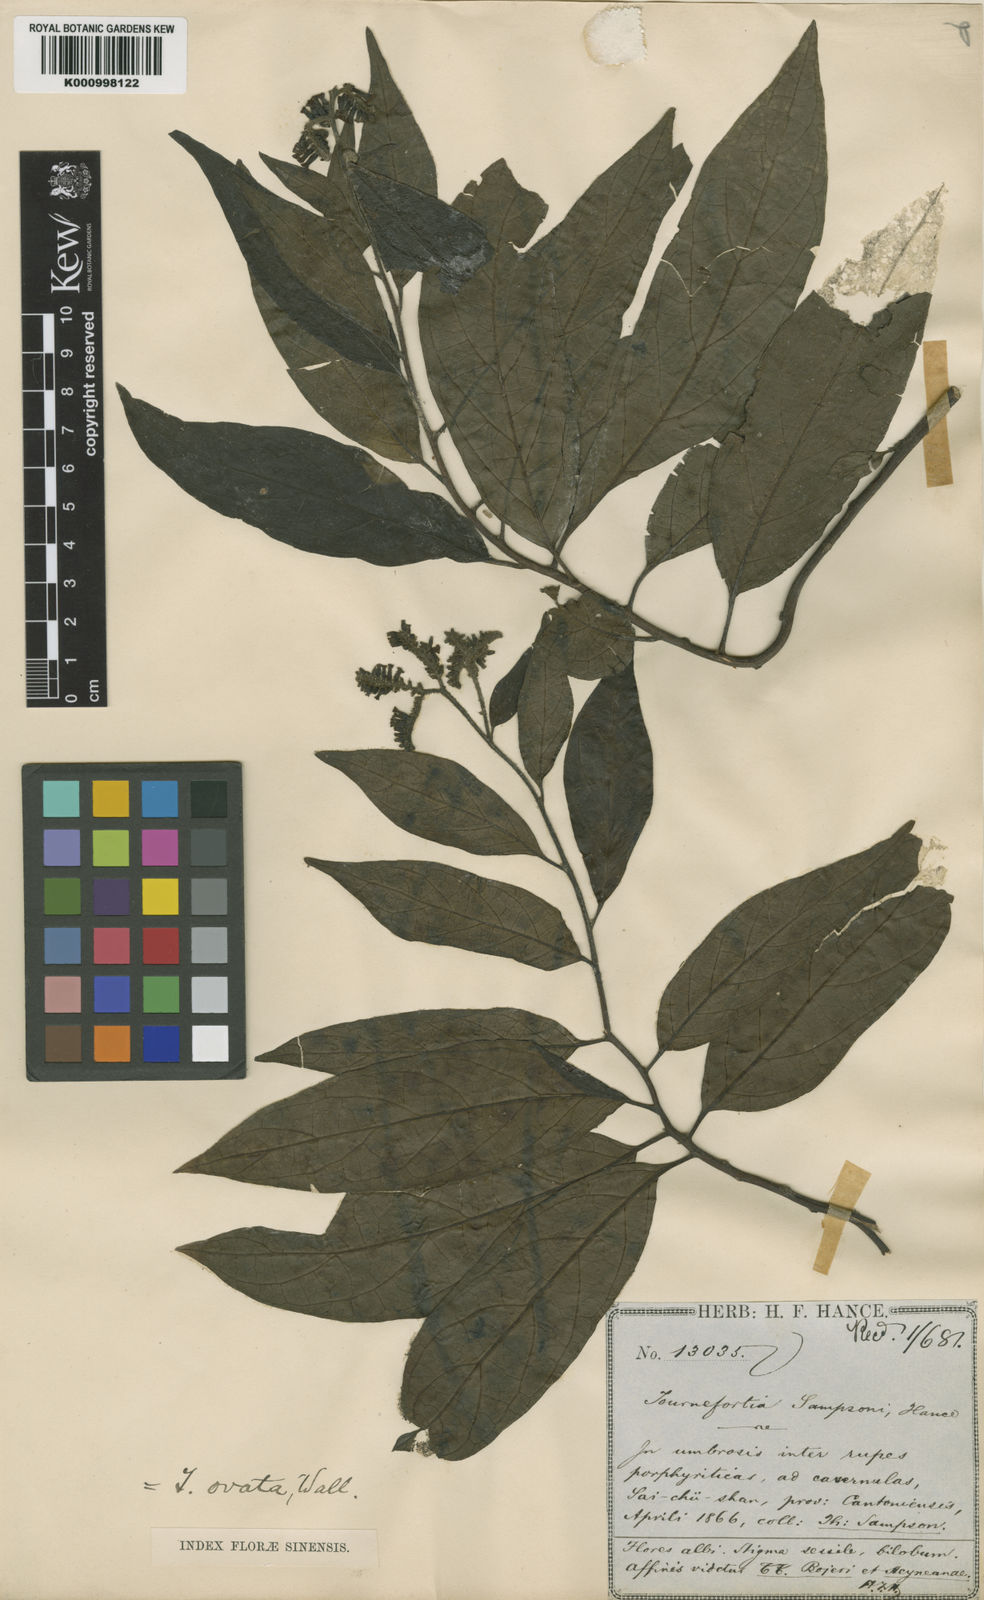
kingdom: Plantae
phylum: Tracheophyta
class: Magnoliopsida
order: Boraginales
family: Heliotropiaceae
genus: Tournefortia
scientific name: Tournefortia
